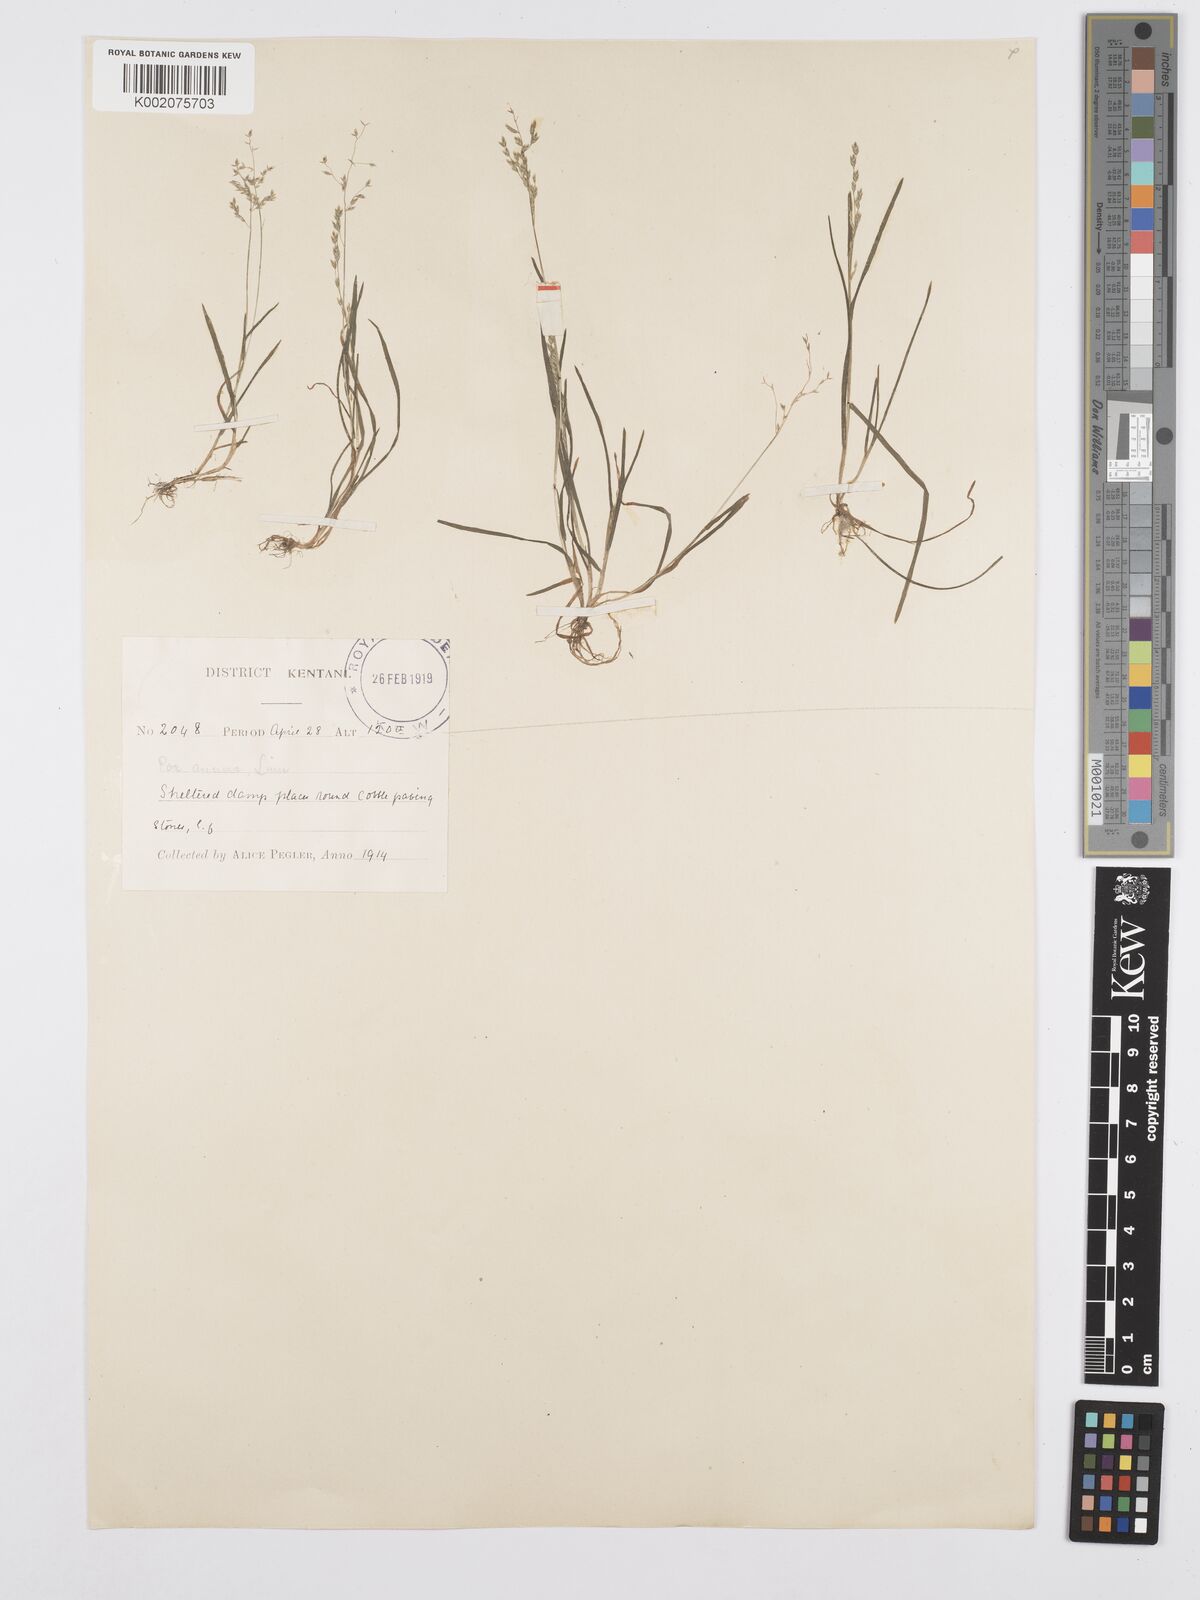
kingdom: Plantae
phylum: Tracheophyta
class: Liliopsida
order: Poales
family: Poaceae
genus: Poa
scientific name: Poa annua
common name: Annual bluegrass
